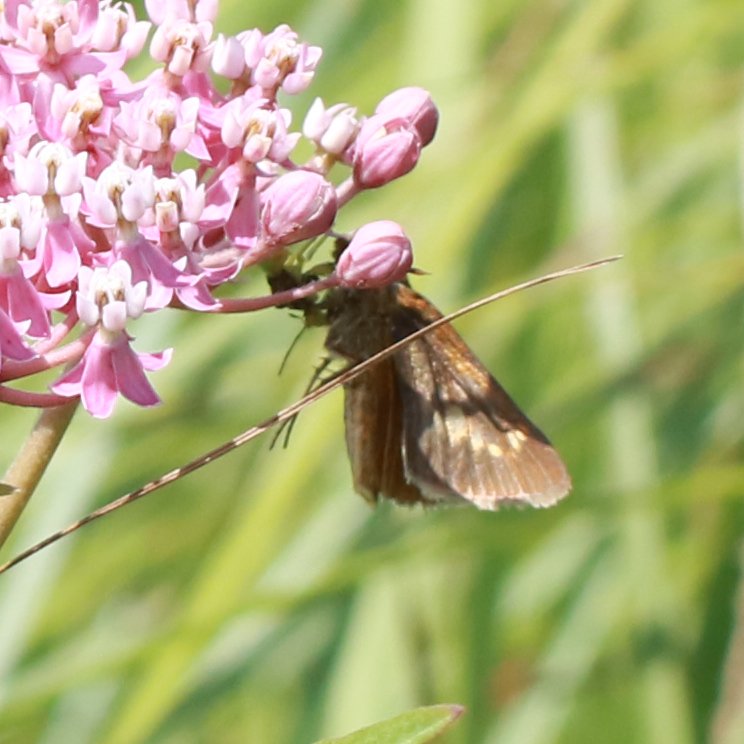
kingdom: Animalia
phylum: Arthropoda
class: Insecta
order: Lepidoptera
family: Hesperiidae
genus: Euphyes
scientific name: Euphyes
